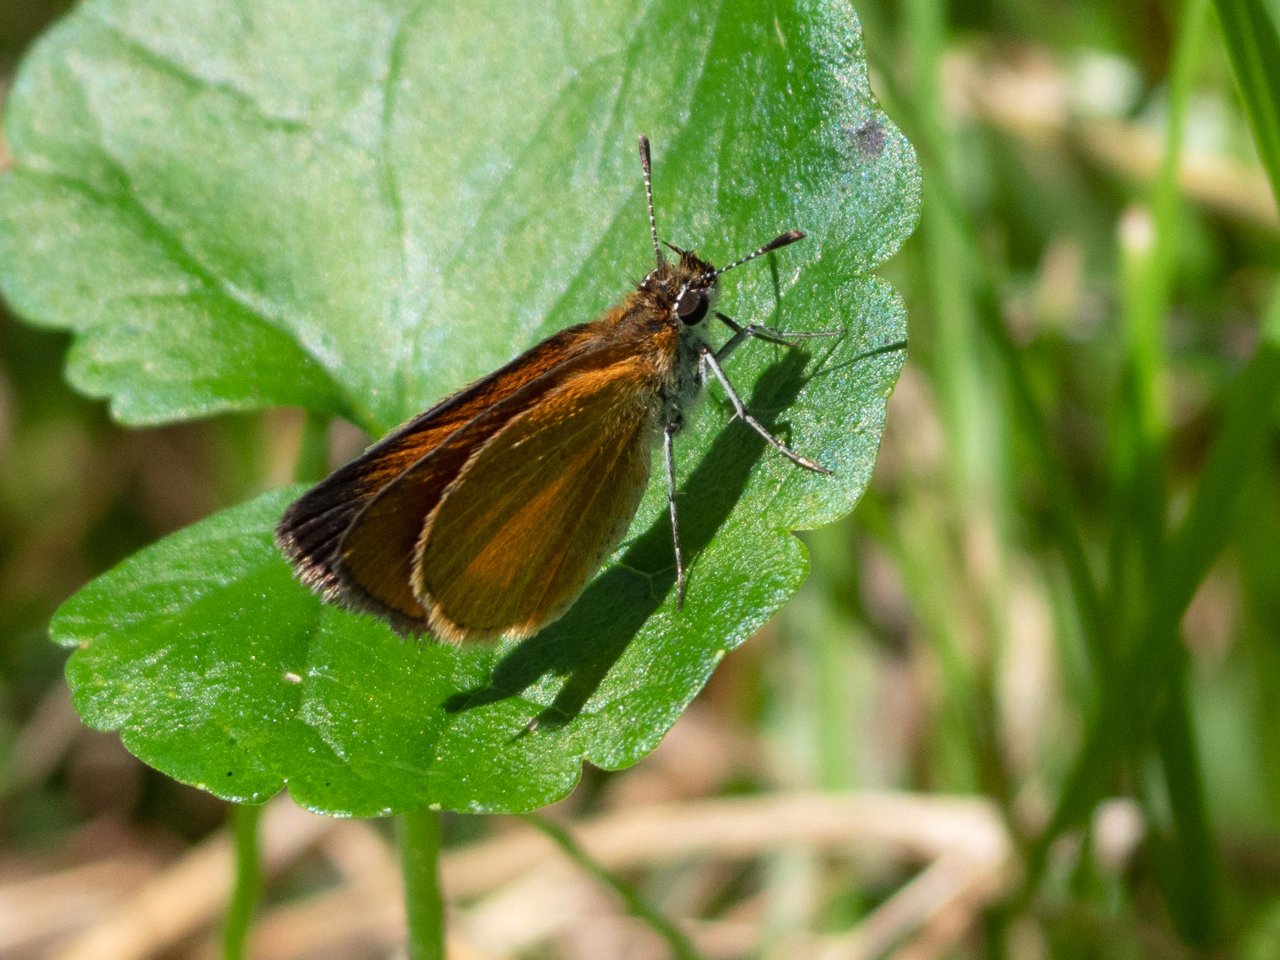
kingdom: Animalia
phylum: Arthropoda
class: Insecta
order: Lepidoptera
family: Hesperiidae
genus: Ancyloxypha
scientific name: Ancyloxypha numitor
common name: Least Skipper
